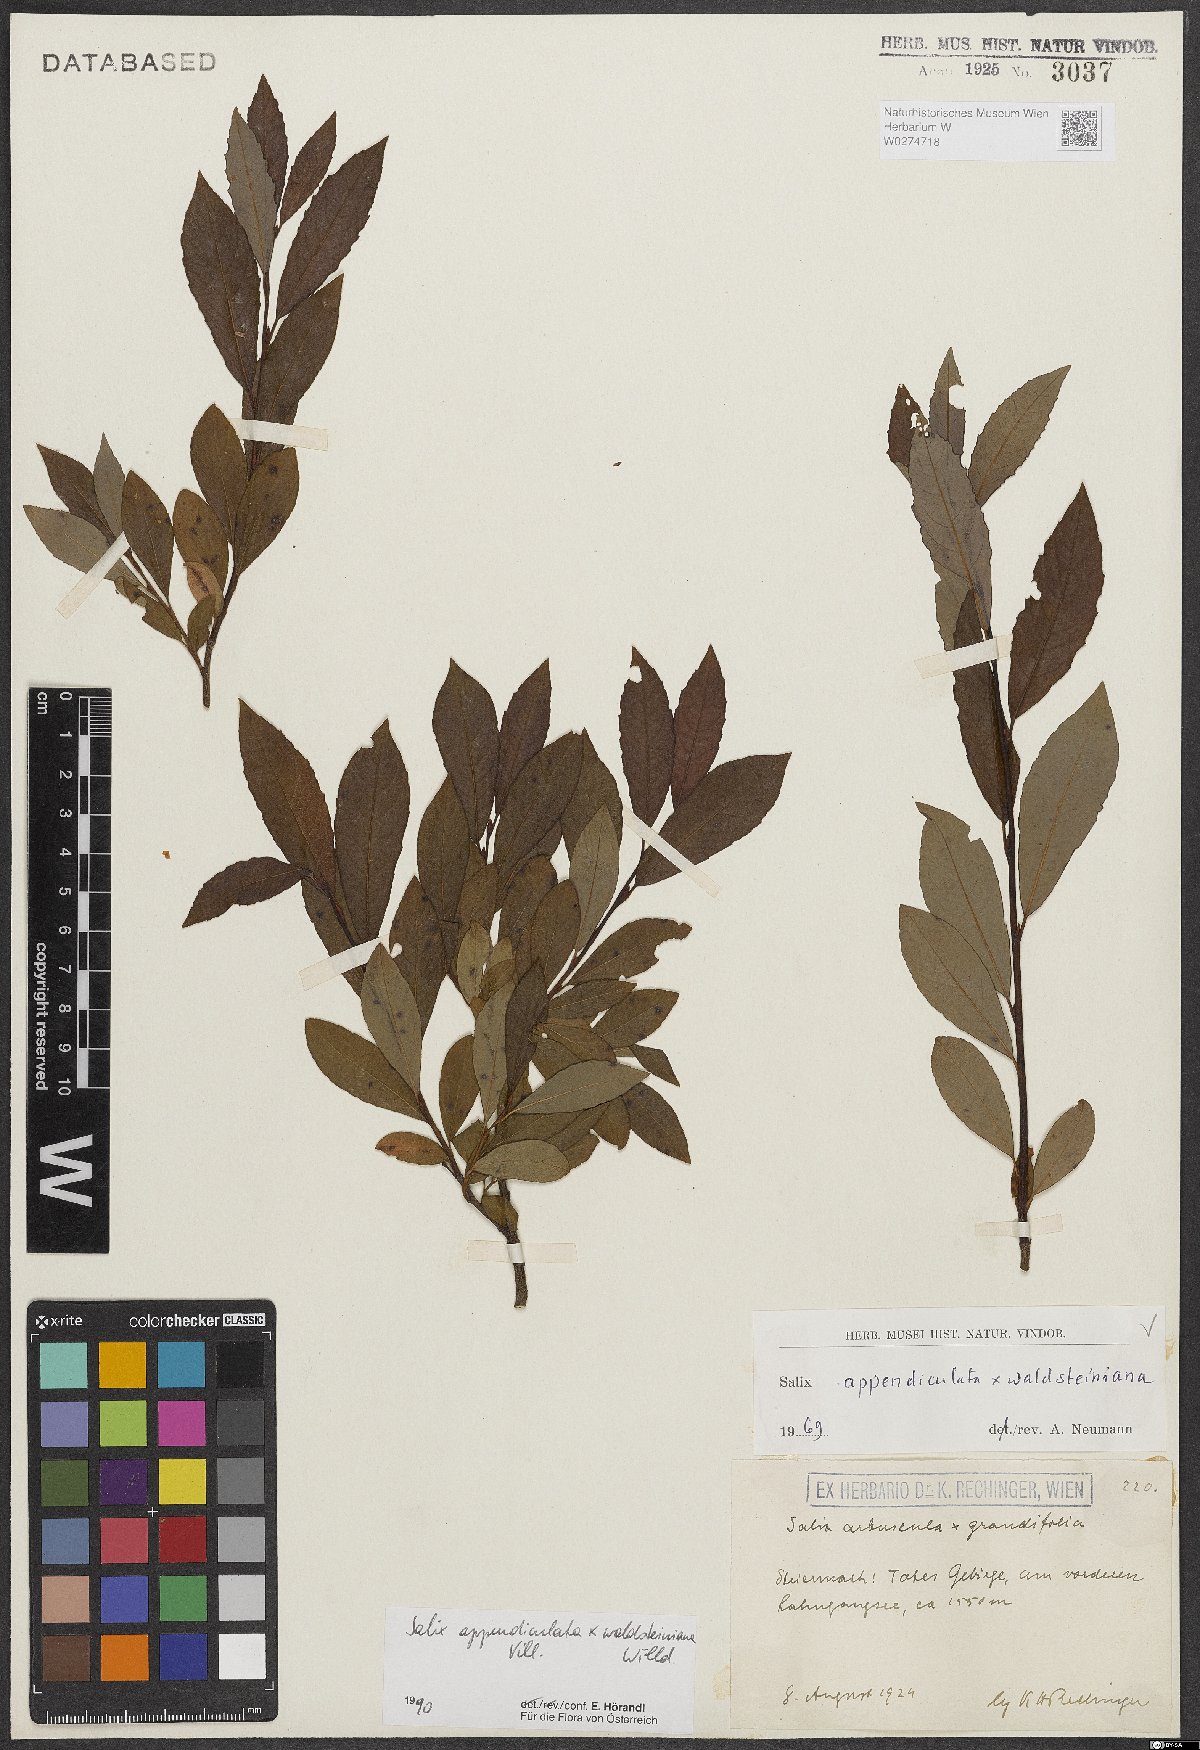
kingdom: Plantae
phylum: Tracheophyta
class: Magnoliopsida
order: Malpighiales
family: Salicaceae
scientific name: Salicaceae
